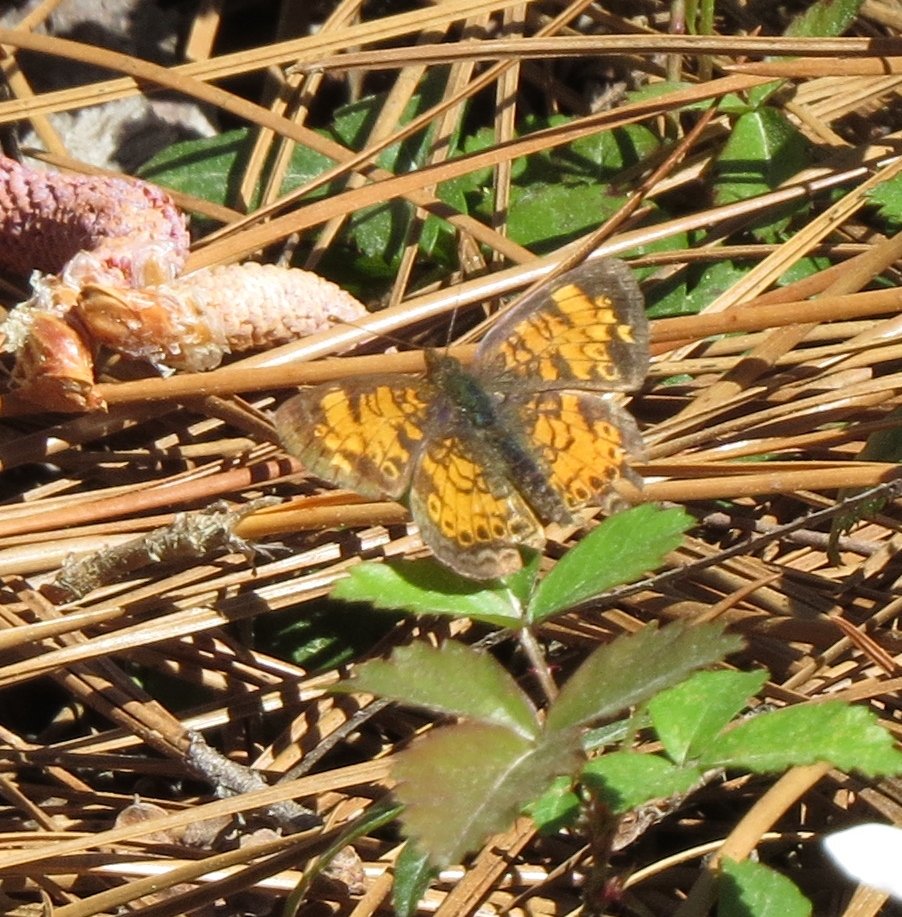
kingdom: Animalia
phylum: Arthropoda
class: Insecta
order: Lepidoptera
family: Nymphalidae
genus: Phyciodes
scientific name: Phyciodes tharos
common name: Pearl Crescent
